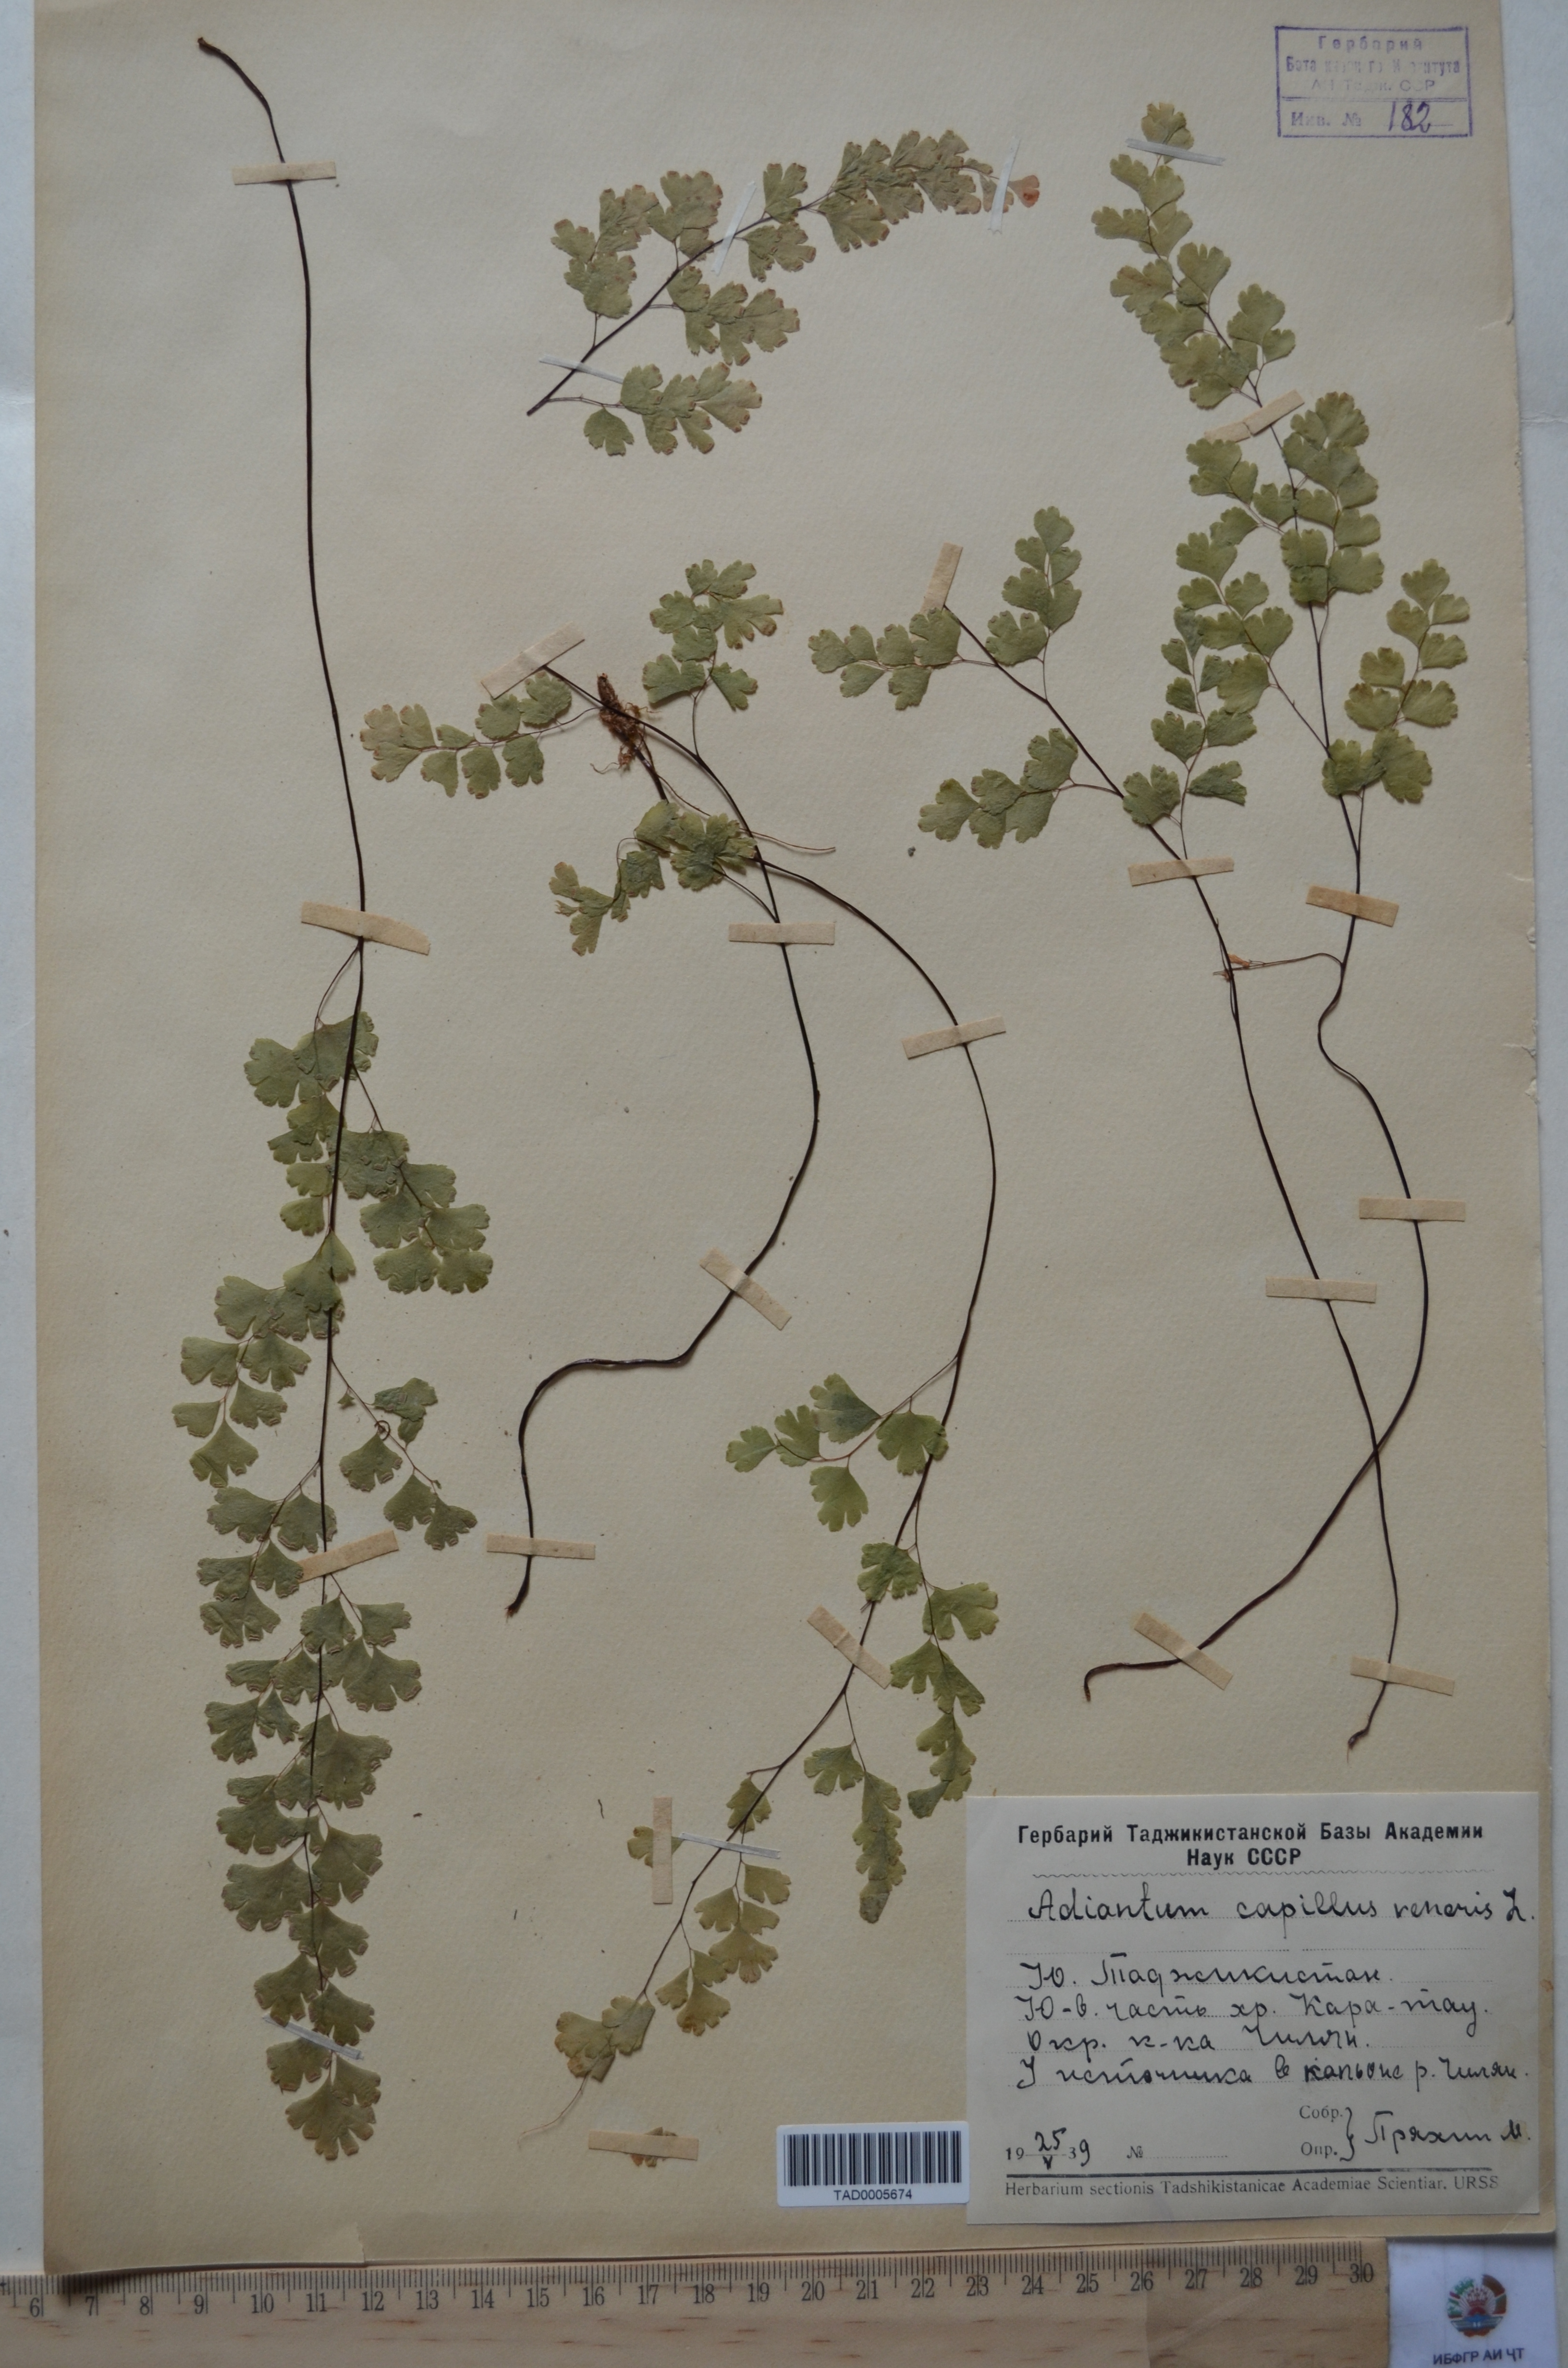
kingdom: Plantae
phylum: Tracheophyta
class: Polypodiopsida
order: Polypodiales
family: Pteridaceae
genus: Adiantum
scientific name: Adiantum capillus-veneris
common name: Maidenhair fern
